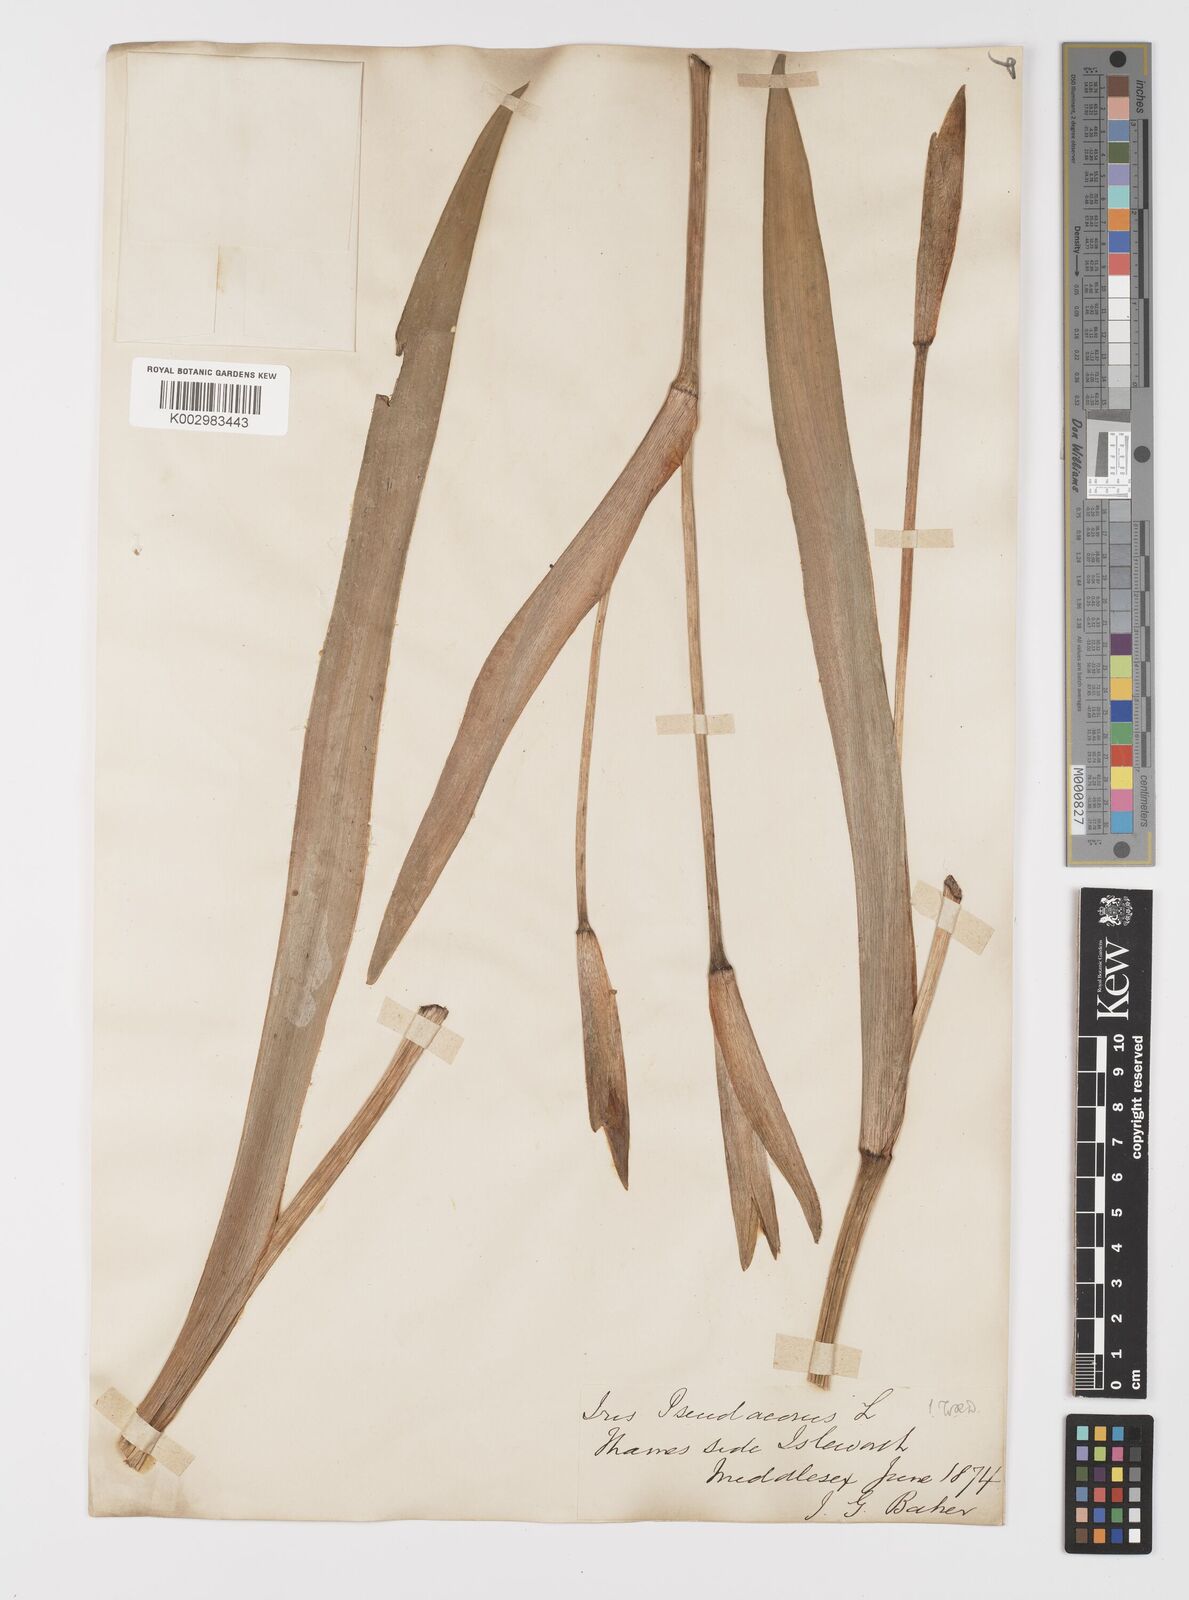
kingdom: Plantae
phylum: Tracheophyta
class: Liliopsida
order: Asparagales
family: Iridaceae
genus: Iris
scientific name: Iris pseudacorus
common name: Yellow flag
